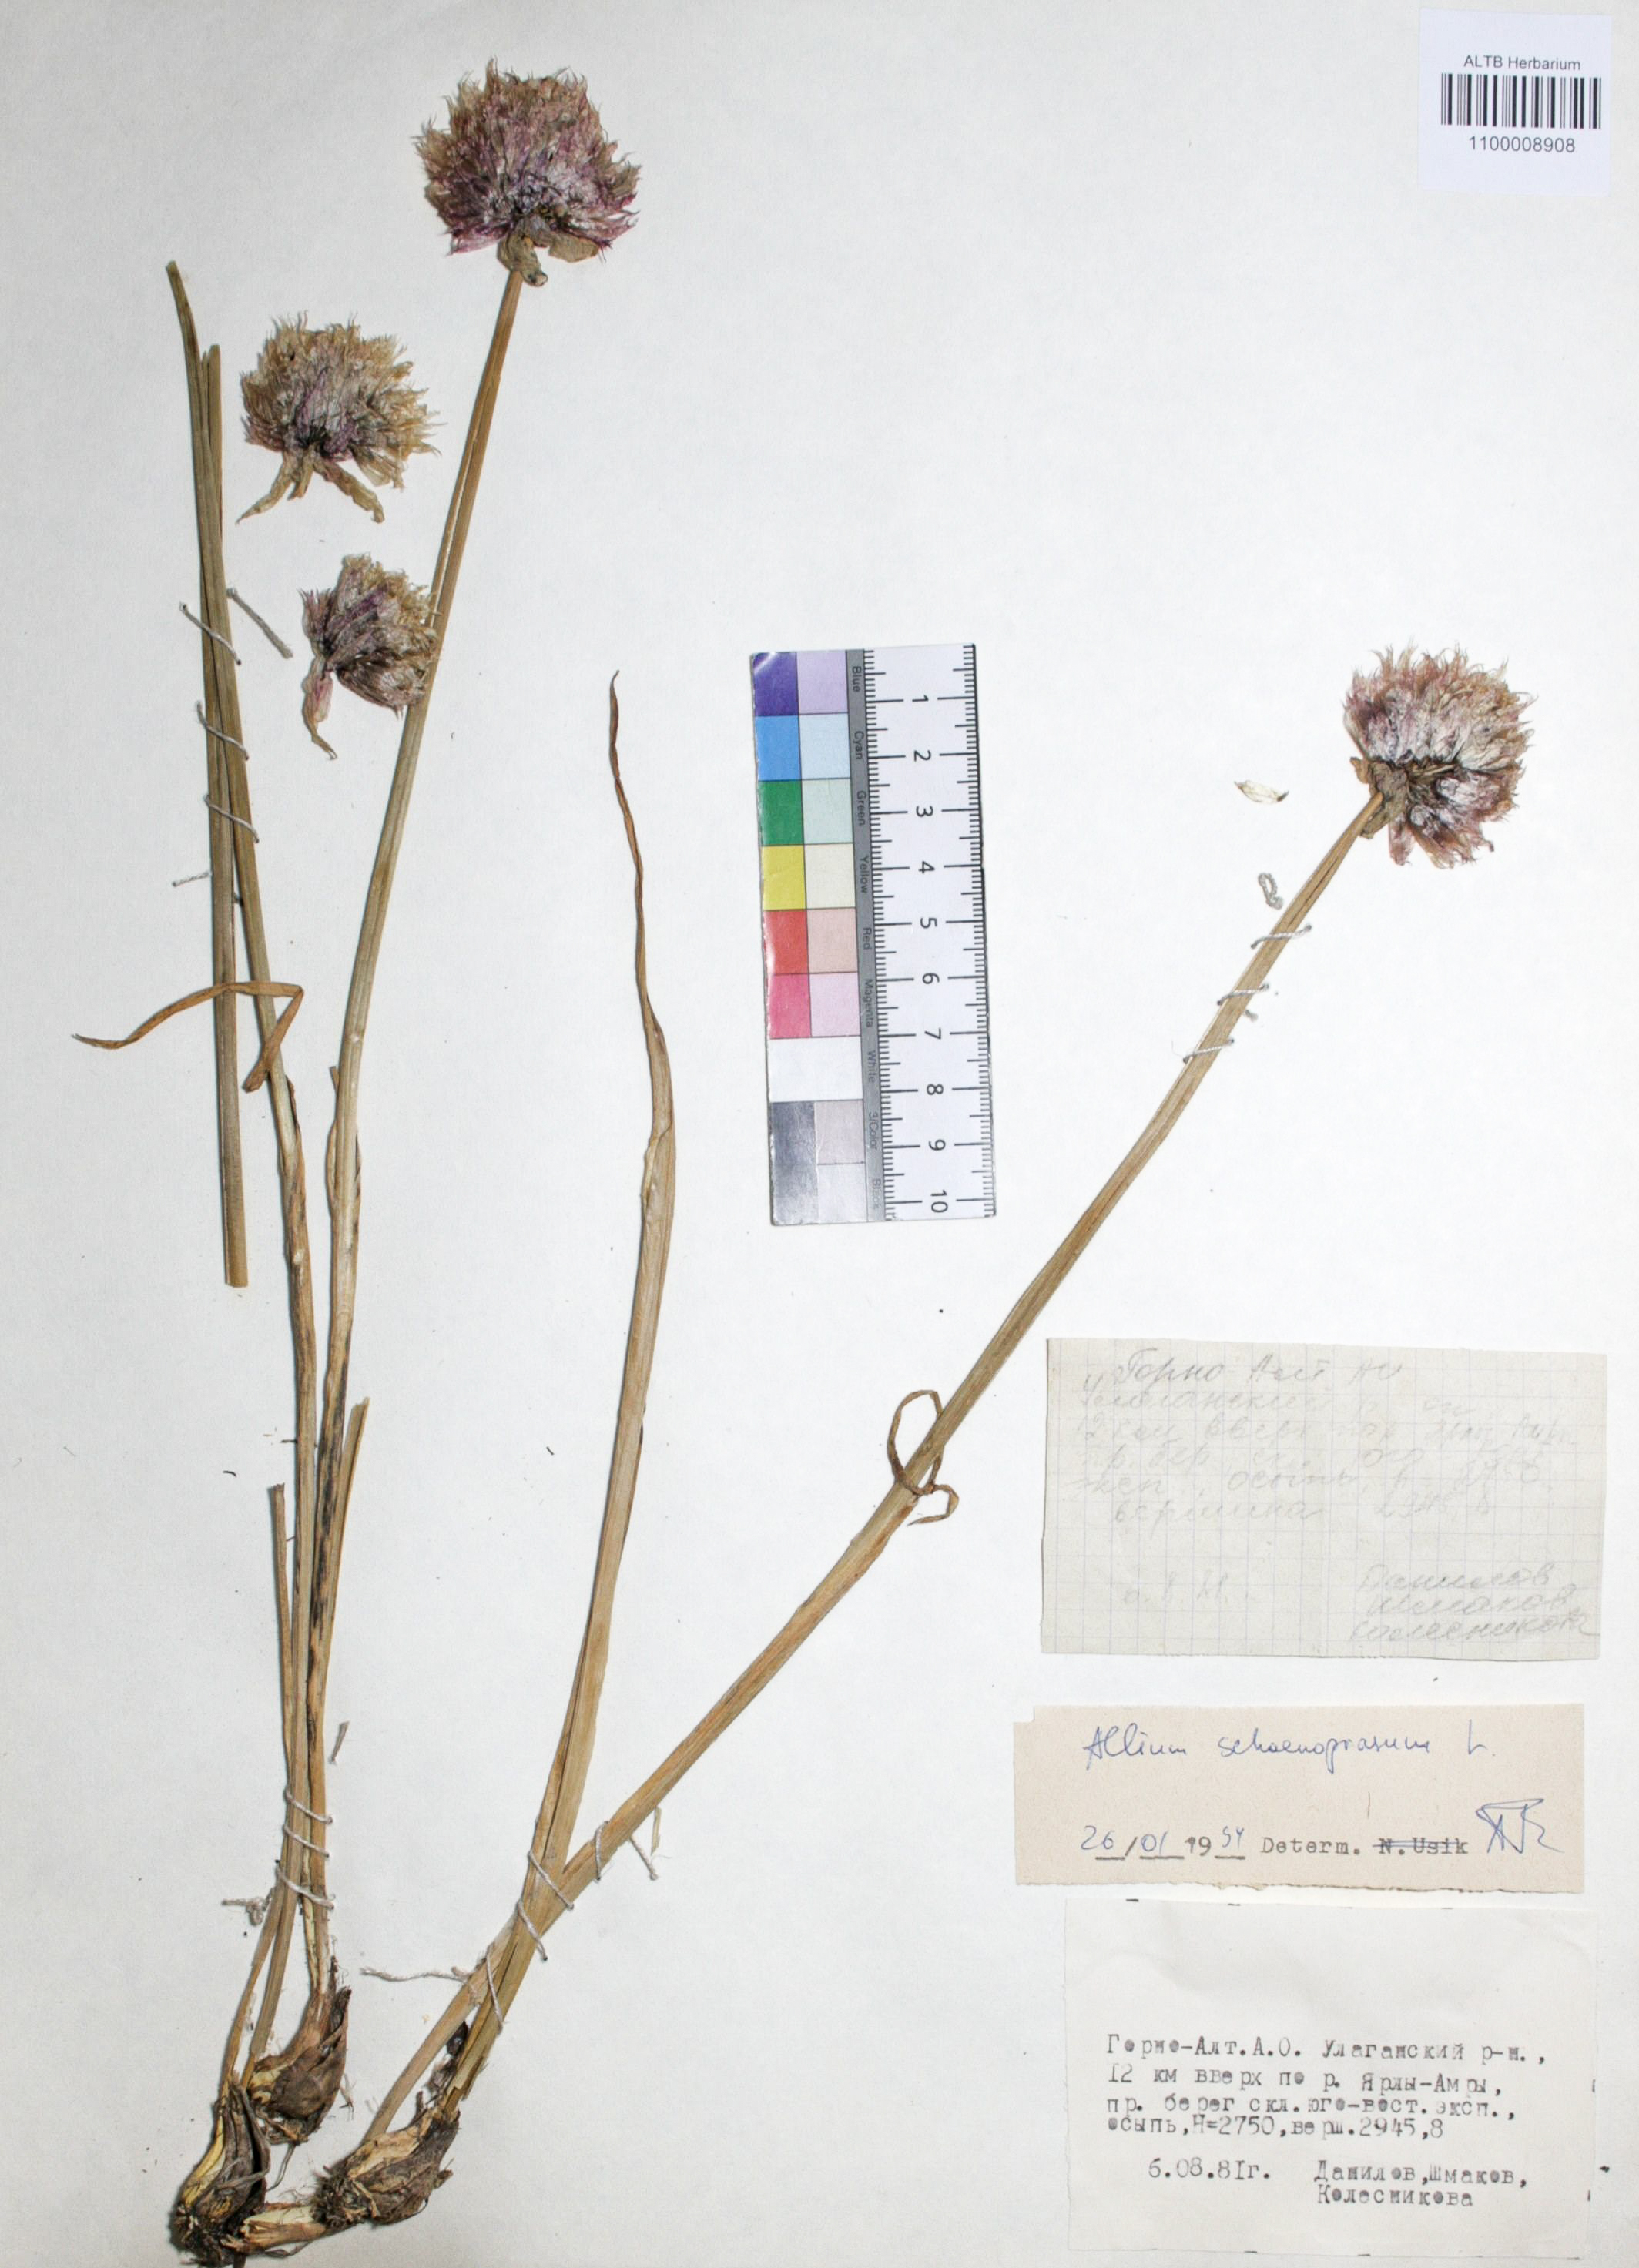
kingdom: Plantae
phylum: Tracheophyta
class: Liliopsida
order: Asparagales
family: Amaryllidaceae
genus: Allium
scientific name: Allium schoenoprasum
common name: Chives
